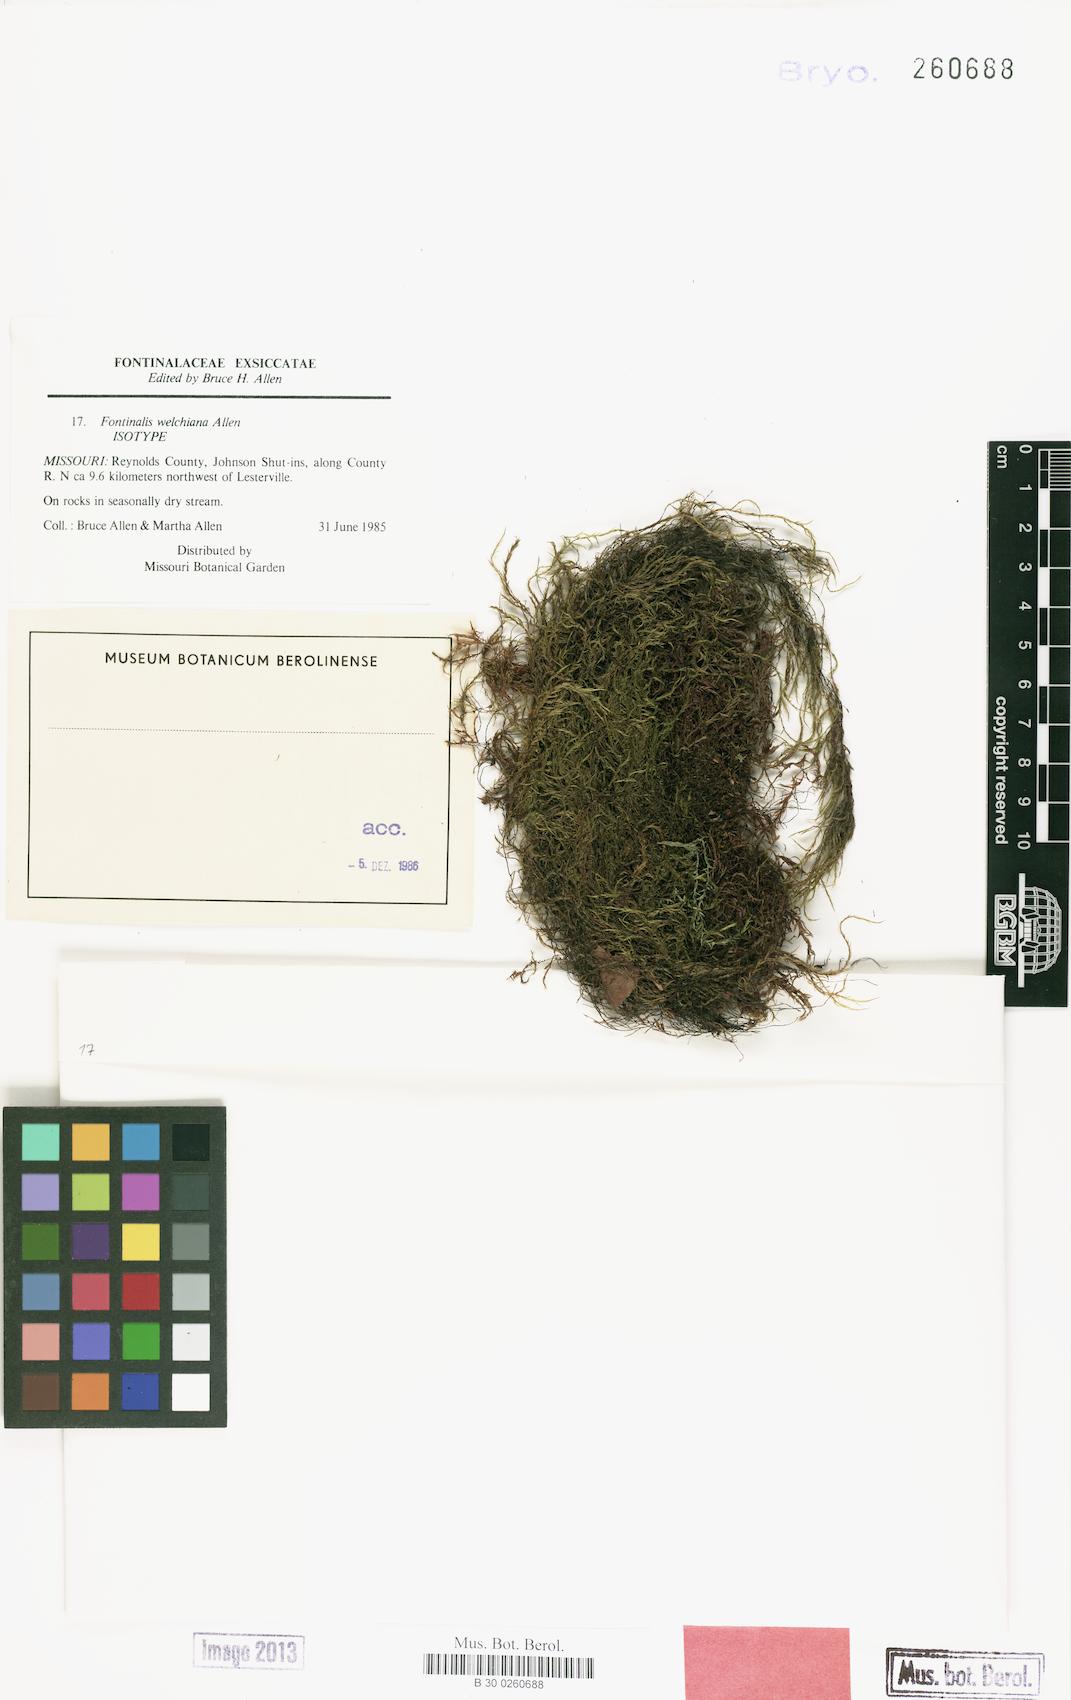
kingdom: Plantae
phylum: Bryophyta
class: Bryopsida
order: Hypnales
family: Fontinalaceae
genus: Fontinalis
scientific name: Fontinalis welchiana
